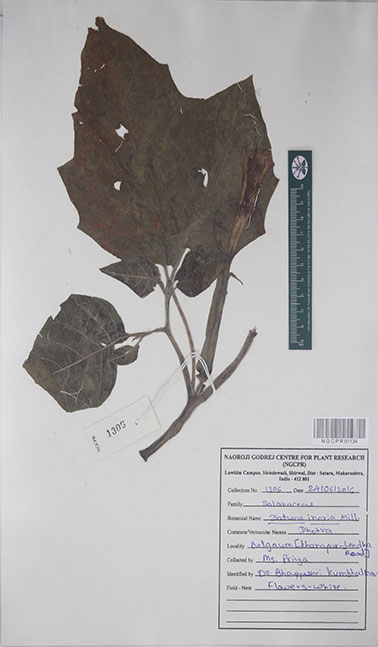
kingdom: Plantae
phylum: Tracheophyta
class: Magnoliopsida
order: Solanales
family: Solanaceae
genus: Datura
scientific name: Datura innoxia
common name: Downy thorn-apple
